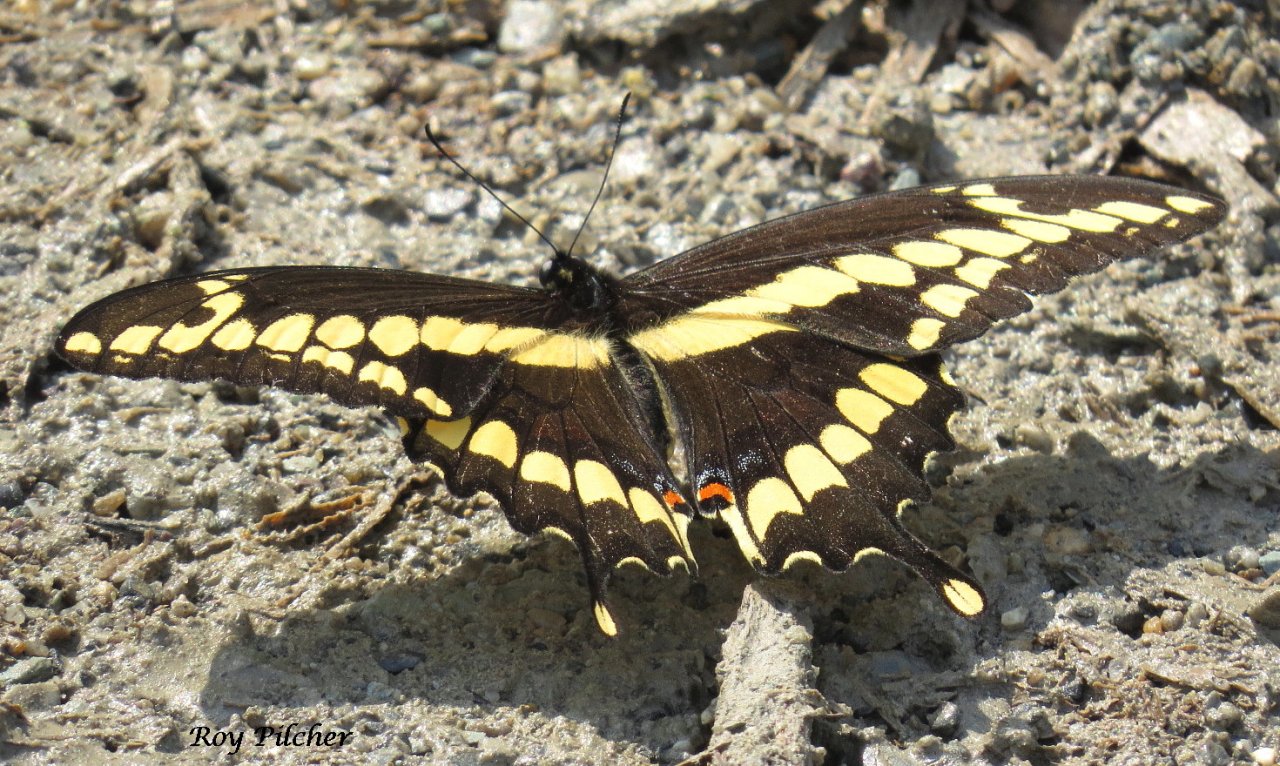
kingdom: Animalia
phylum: Arthropoda
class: Insecta
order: Lepidoptera
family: Papilionidae
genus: Papilio
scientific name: Papilio cresphontes
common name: Eastern Giant Swallowtail
